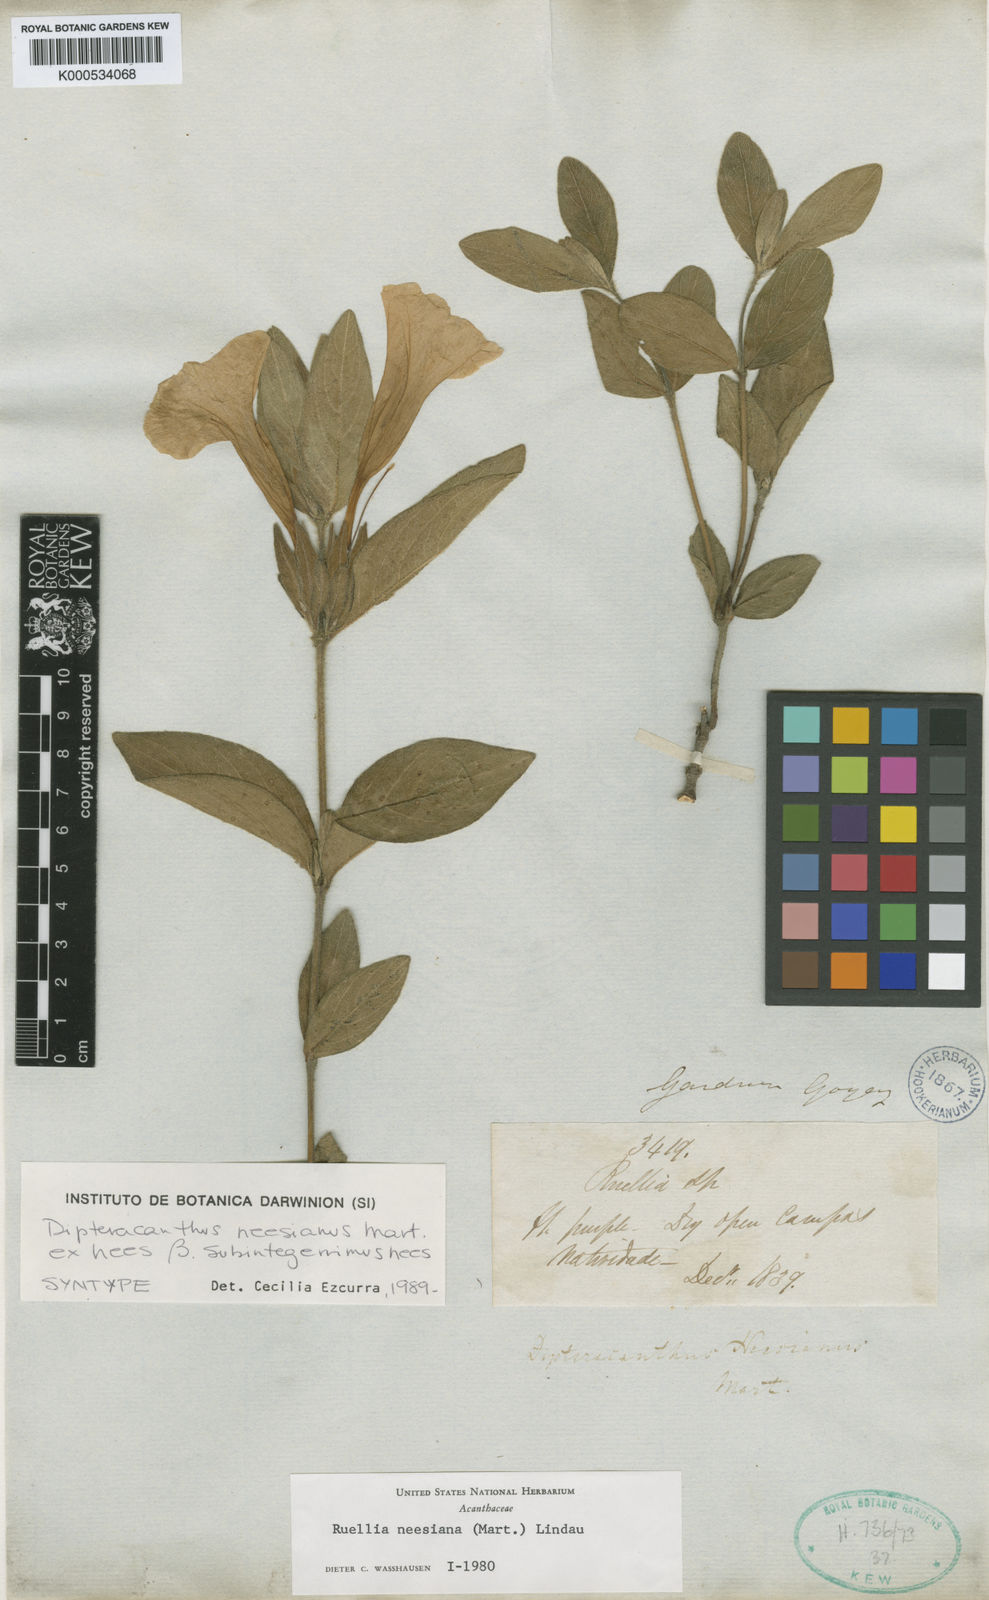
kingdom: Plantae
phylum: Tracheophyta
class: Magnoliopsida
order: Lamiales
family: Acanthaceae
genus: Ruellia
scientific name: Ruellia
